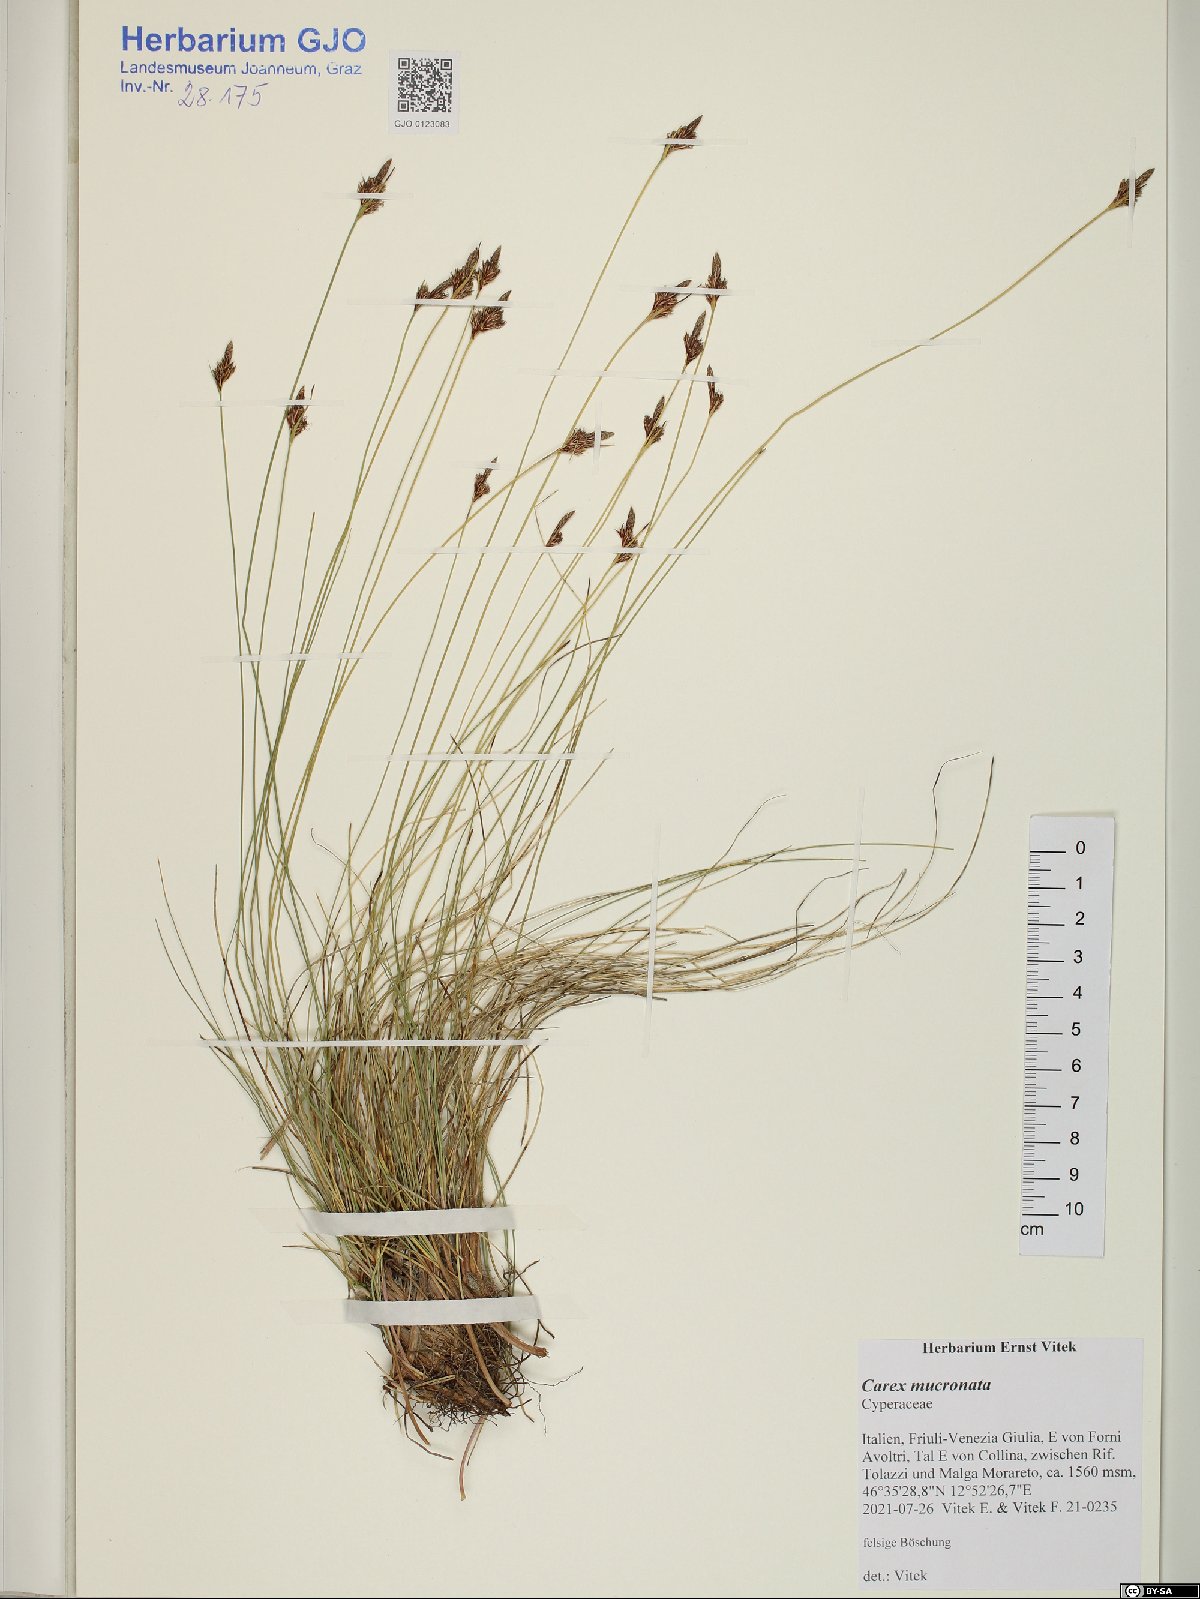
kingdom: Plantae
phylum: Tracheophyta
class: Liliopsida
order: Poales
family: Cyperaceae
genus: Carex
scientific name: Carex mucronata
